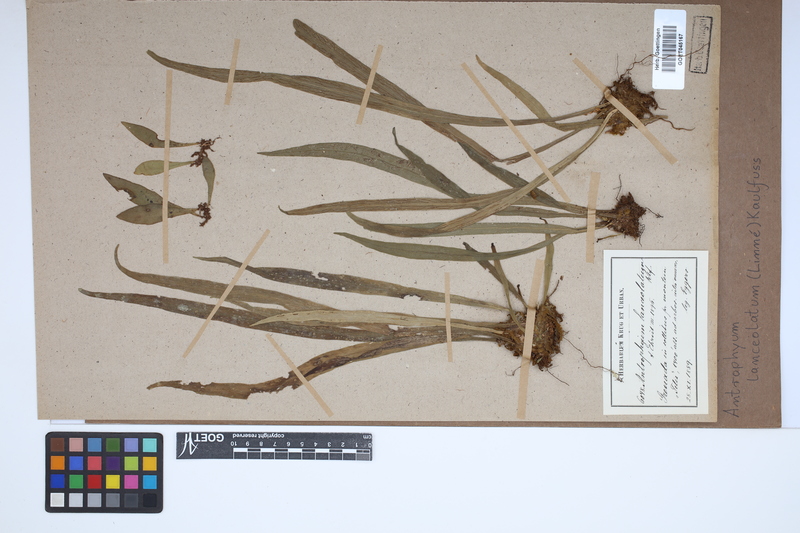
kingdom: Plantae
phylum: Tracheophyta
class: Polypodiopsida
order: Polypodiales
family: Pteridaceae
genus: Polytaenium
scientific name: Polytaenium feei
